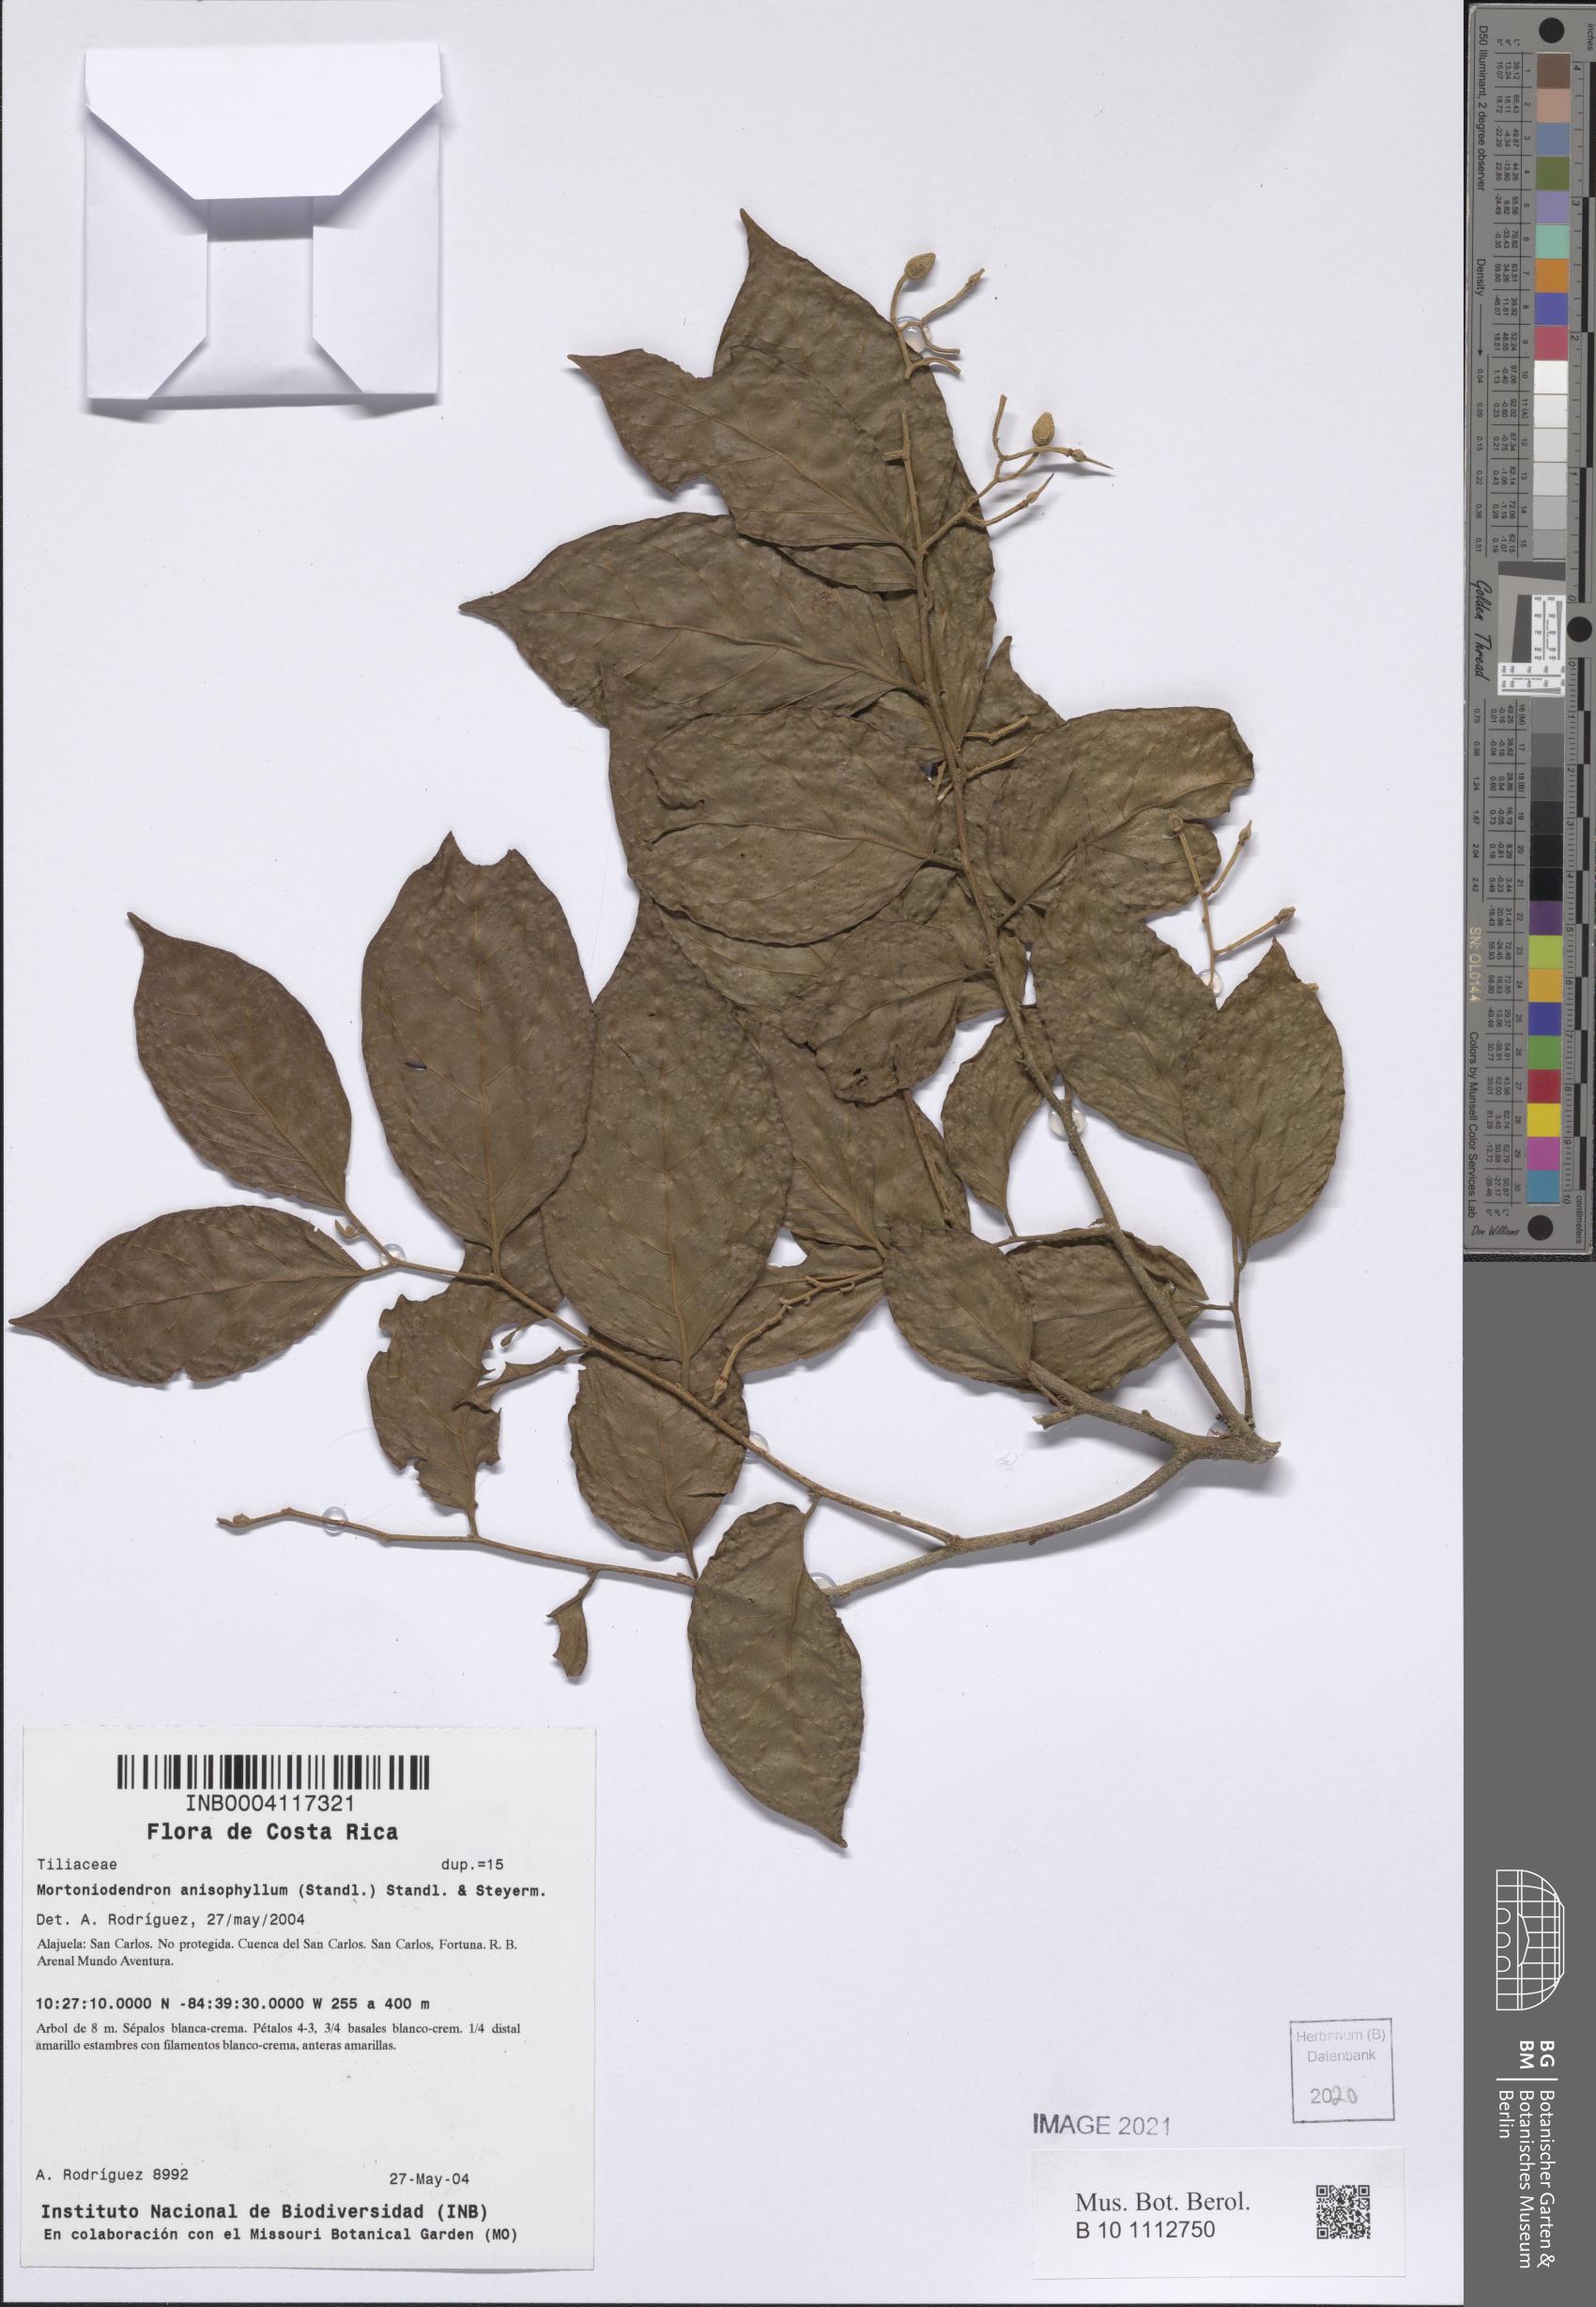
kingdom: Plantae
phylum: Tracheophyta
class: Magnoliopsida
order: Malvales
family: Malvaceae
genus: Mortoniodendron
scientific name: Mortoniodendron anisophyllum
